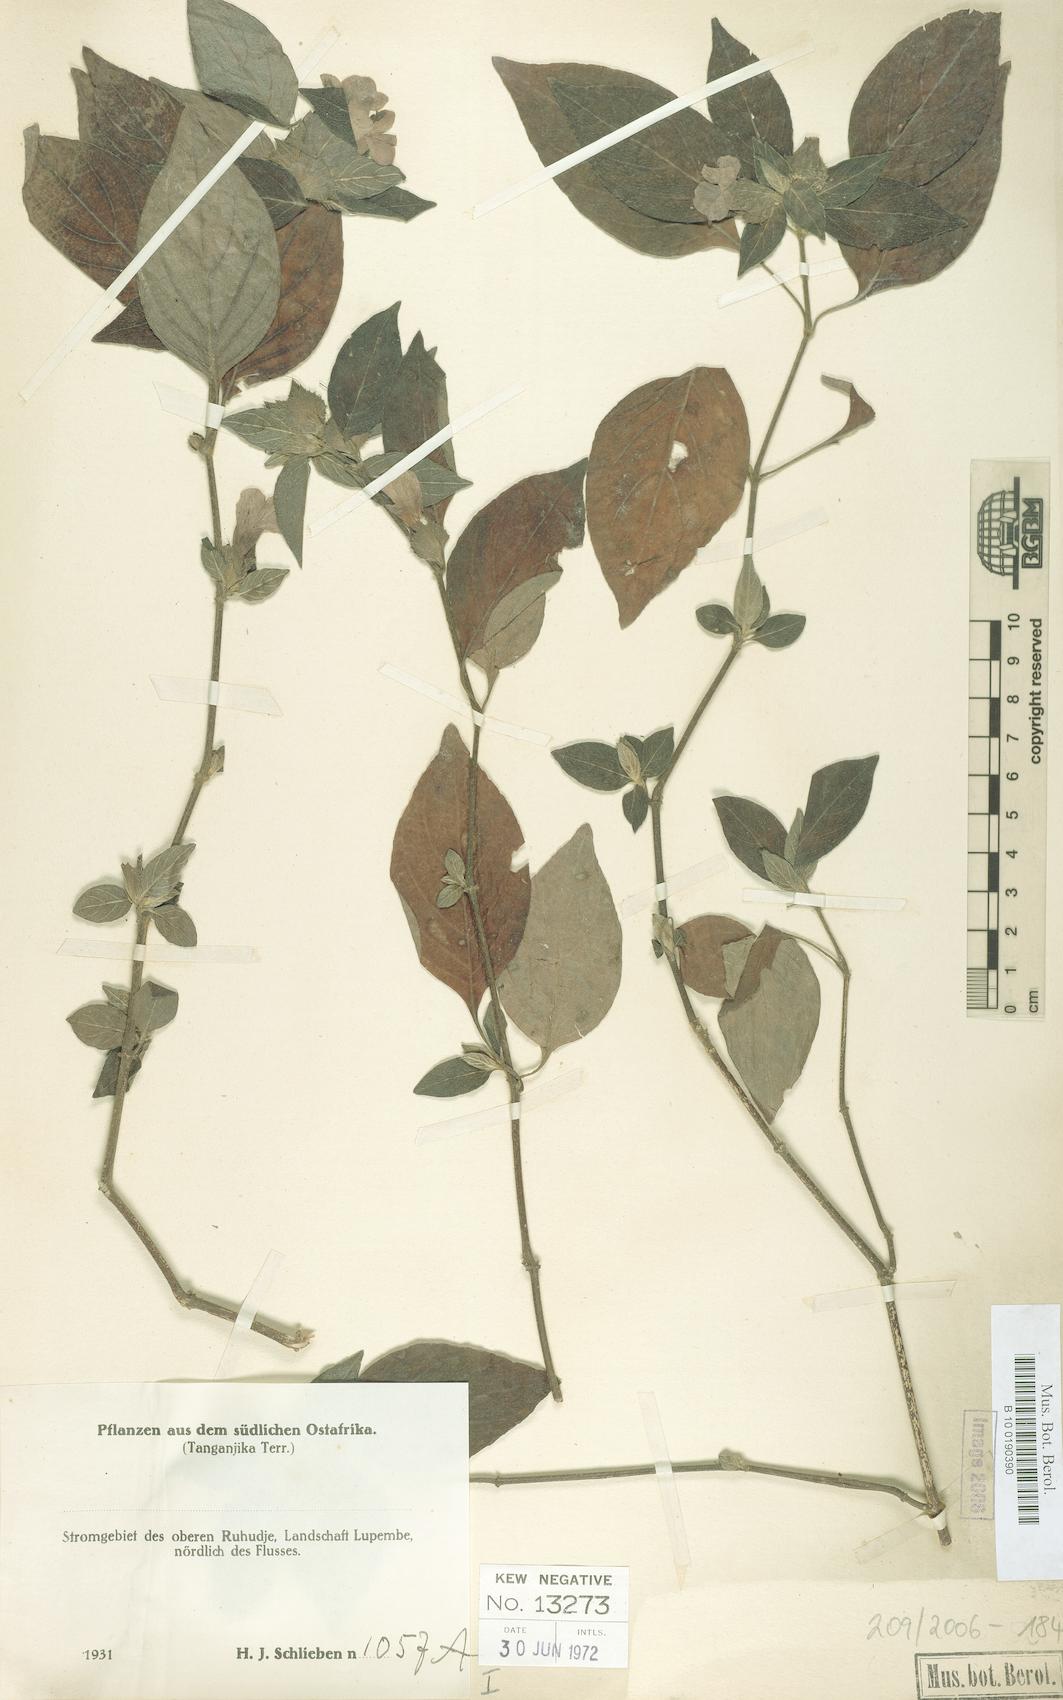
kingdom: Plantae
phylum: Tracheophyta
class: Magnoliopsida
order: Lamiales
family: Acanthaceae
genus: Barleria
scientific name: Barleria ventricosa
